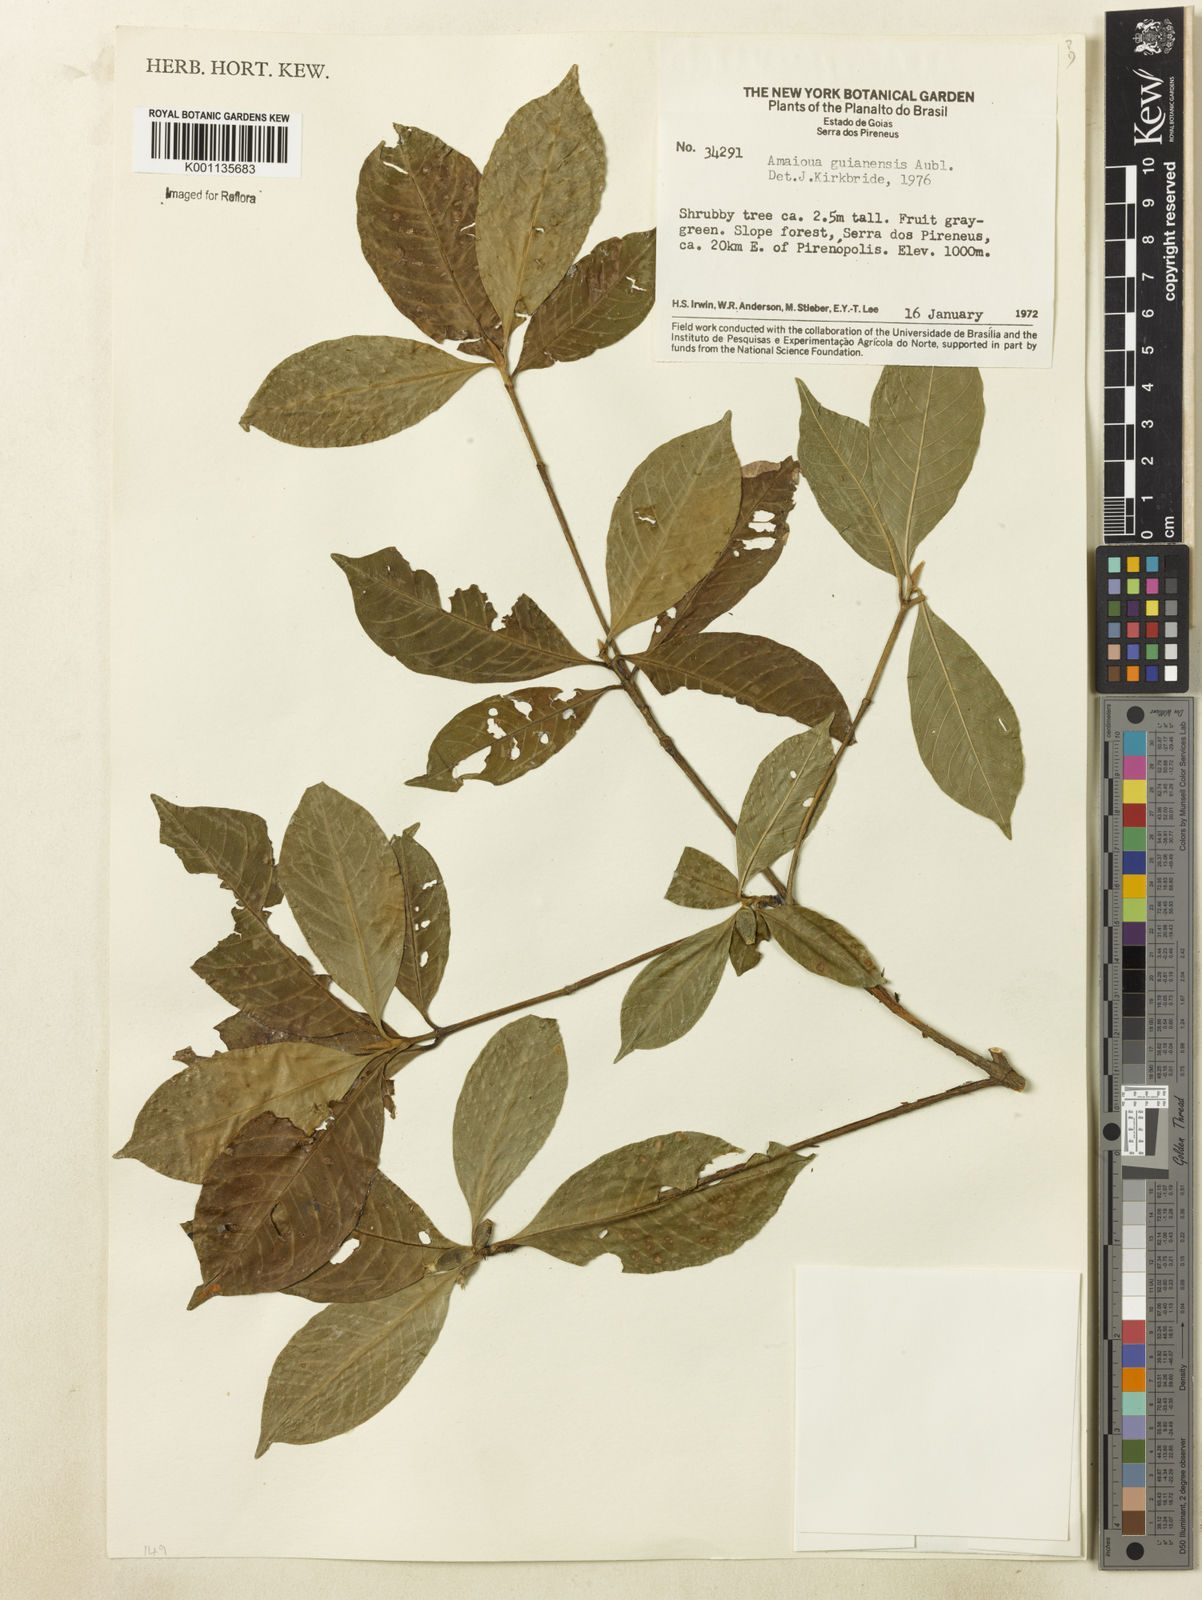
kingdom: Plantae
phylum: Tracheophyta
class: Magnoliopsida
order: Gentianales
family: Rubiaceae
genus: Amaioua
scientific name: Amaioua guianensis
